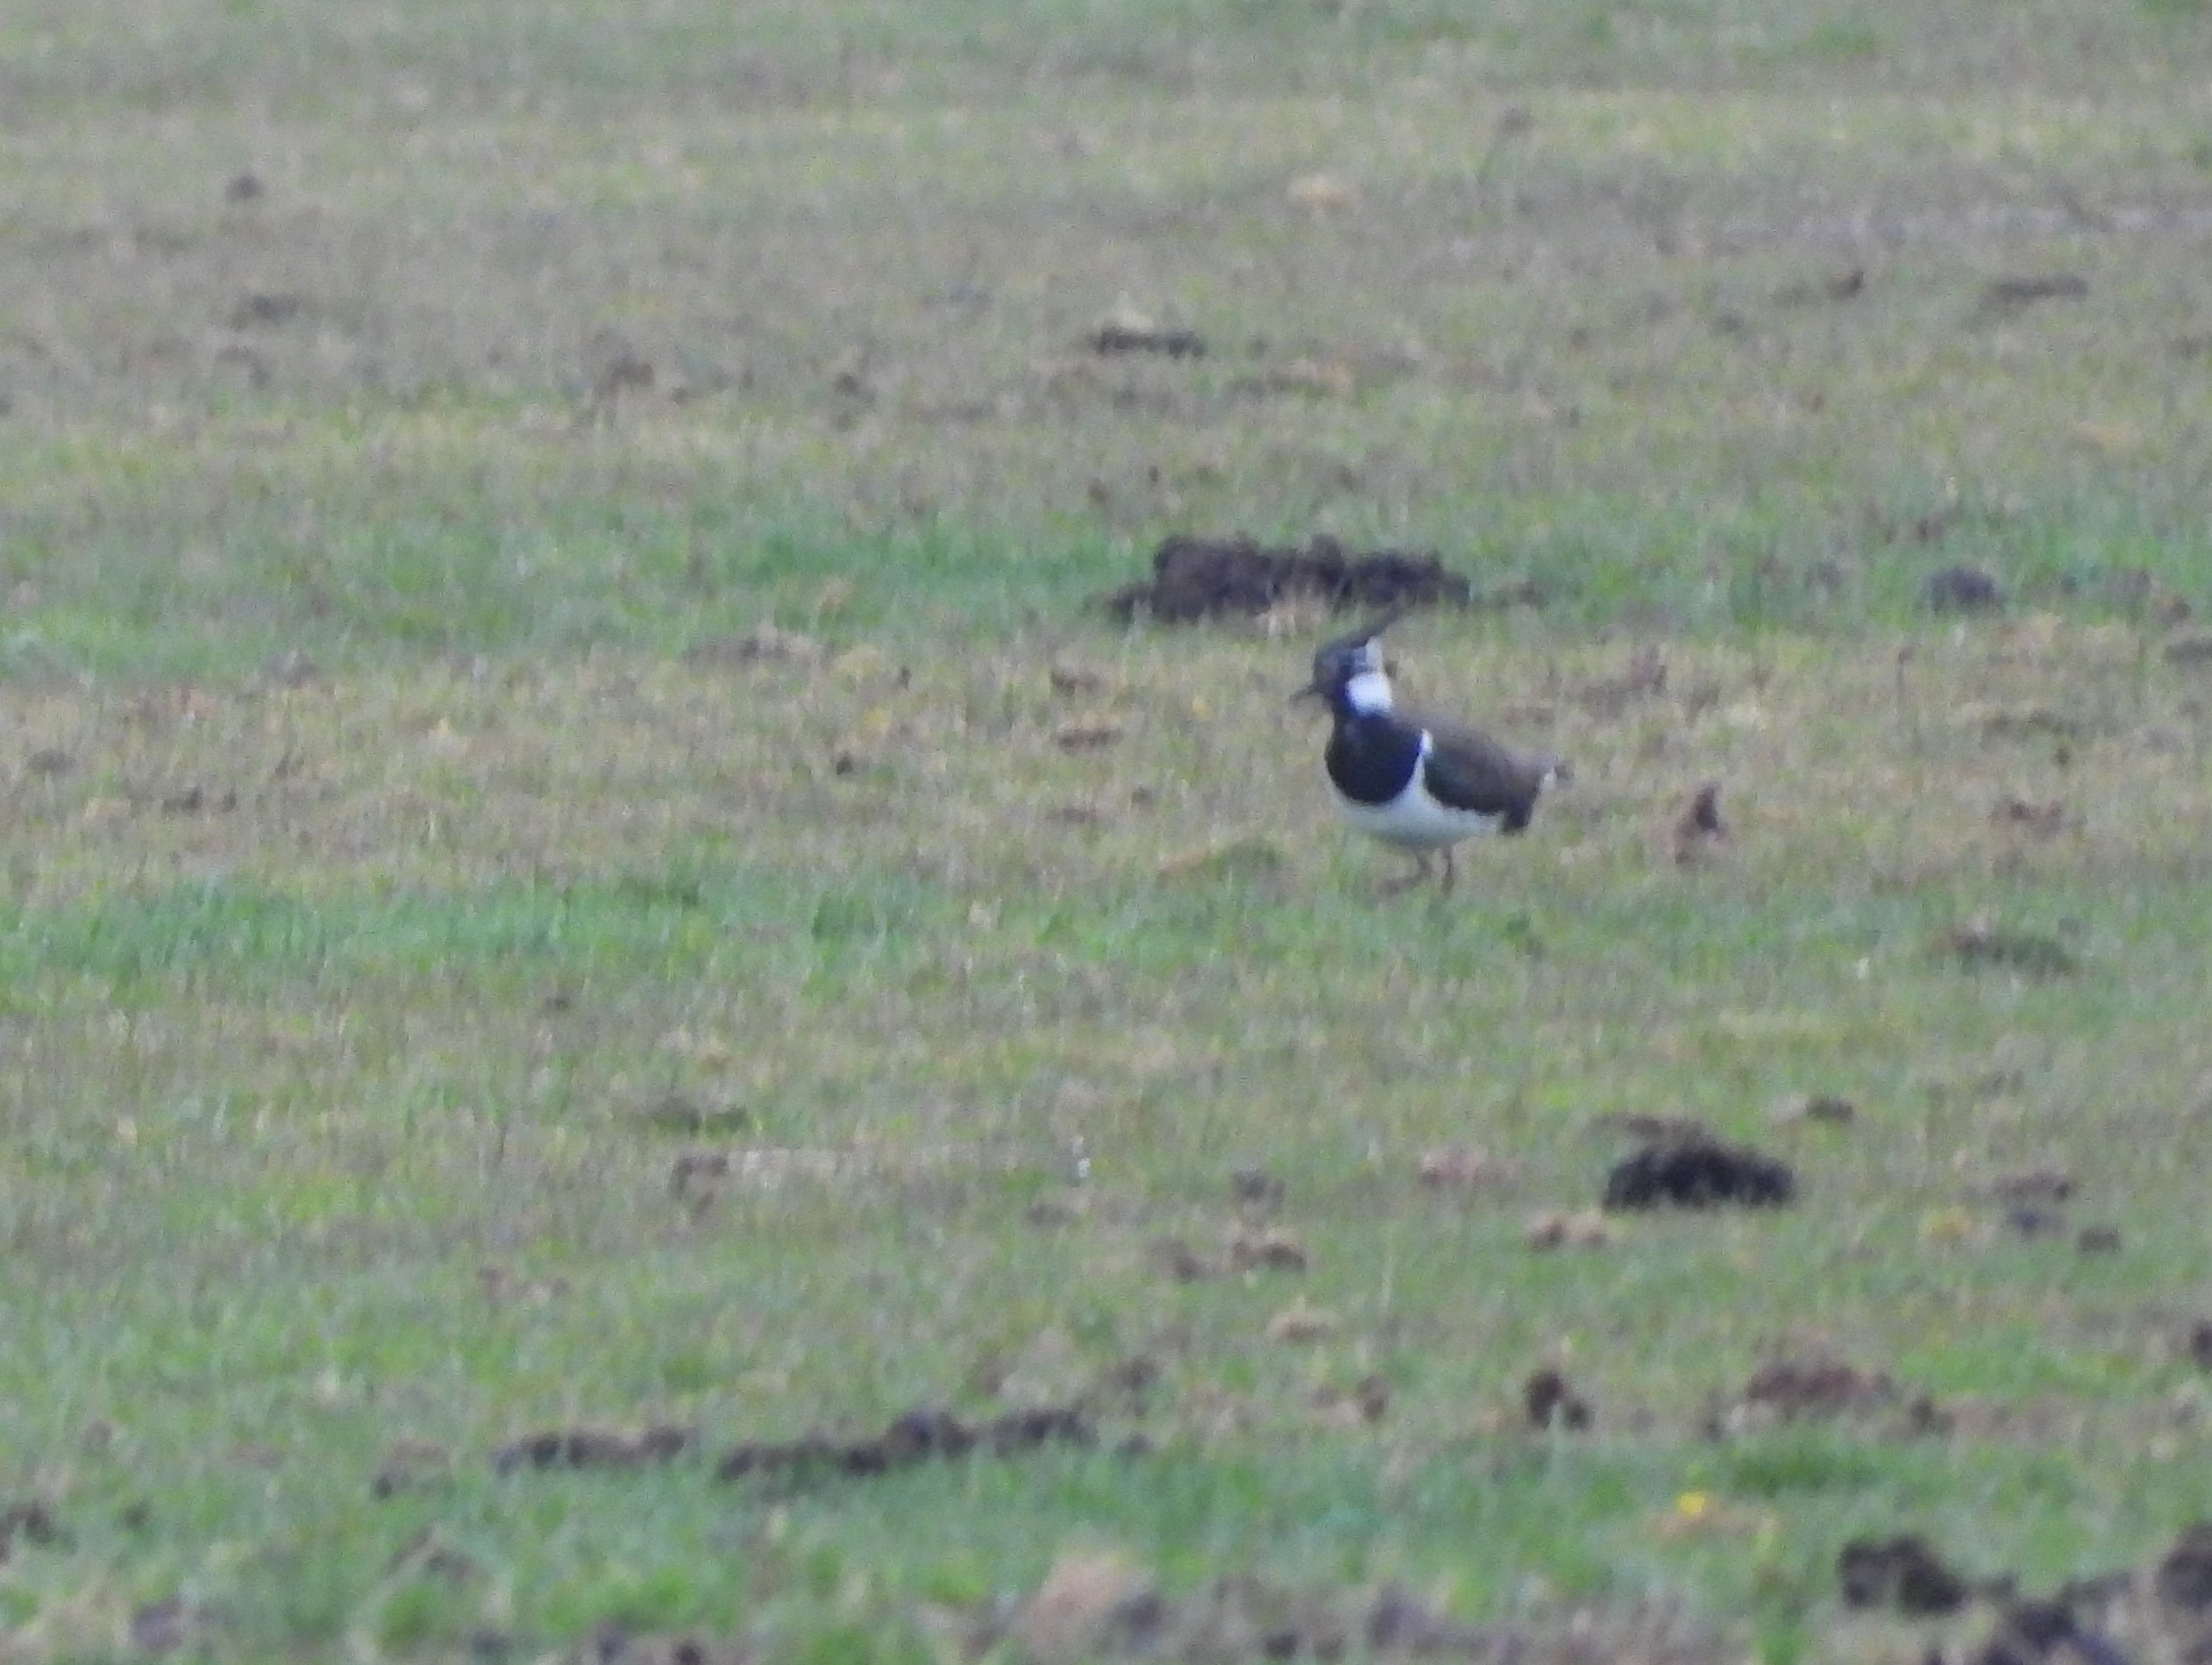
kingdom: Animalia
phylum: Chordata
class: Aves
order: Charadriiformes
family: Charadriidae
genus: Vanellus
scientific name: Vanellus vanellus
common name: Vibe
